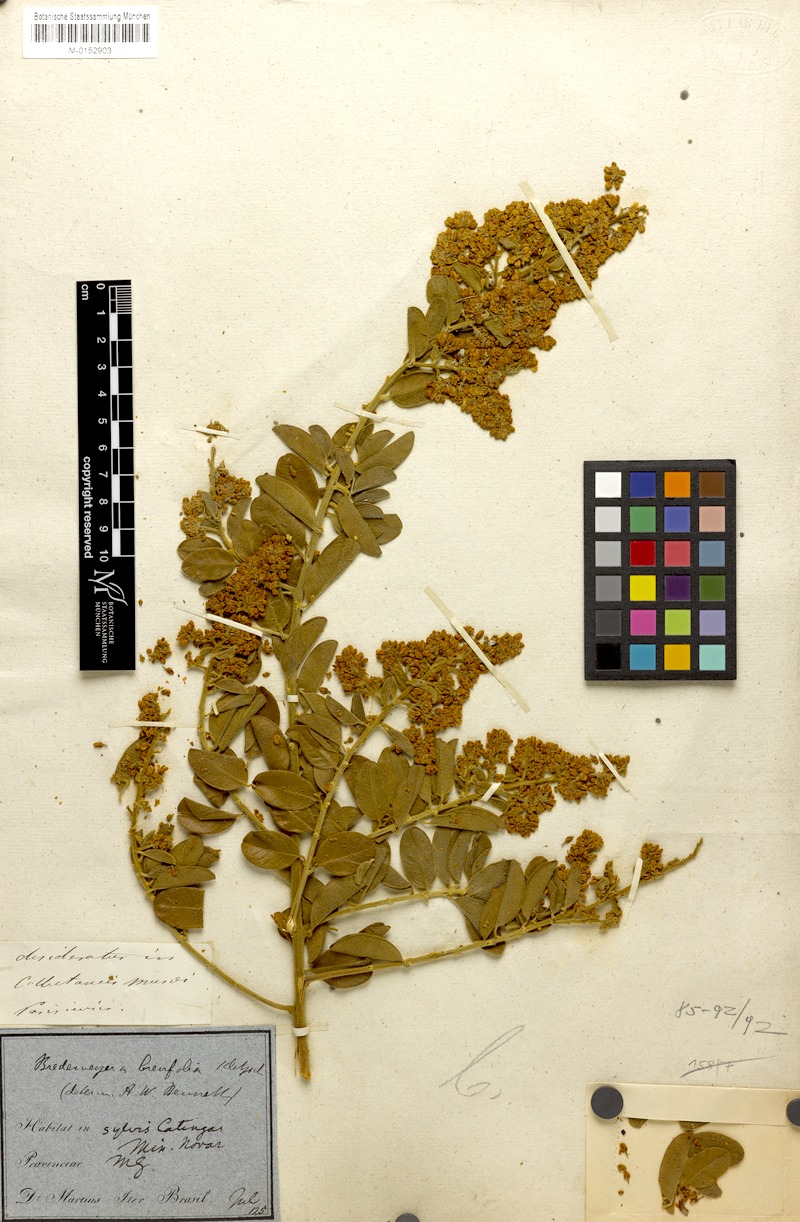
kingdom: Plantae
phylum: Tracheophyta
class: Magnoliopsida
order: Fabales
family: Polygalaceae
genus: Bredemeyera
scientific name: Bredemeyera brevifolia
